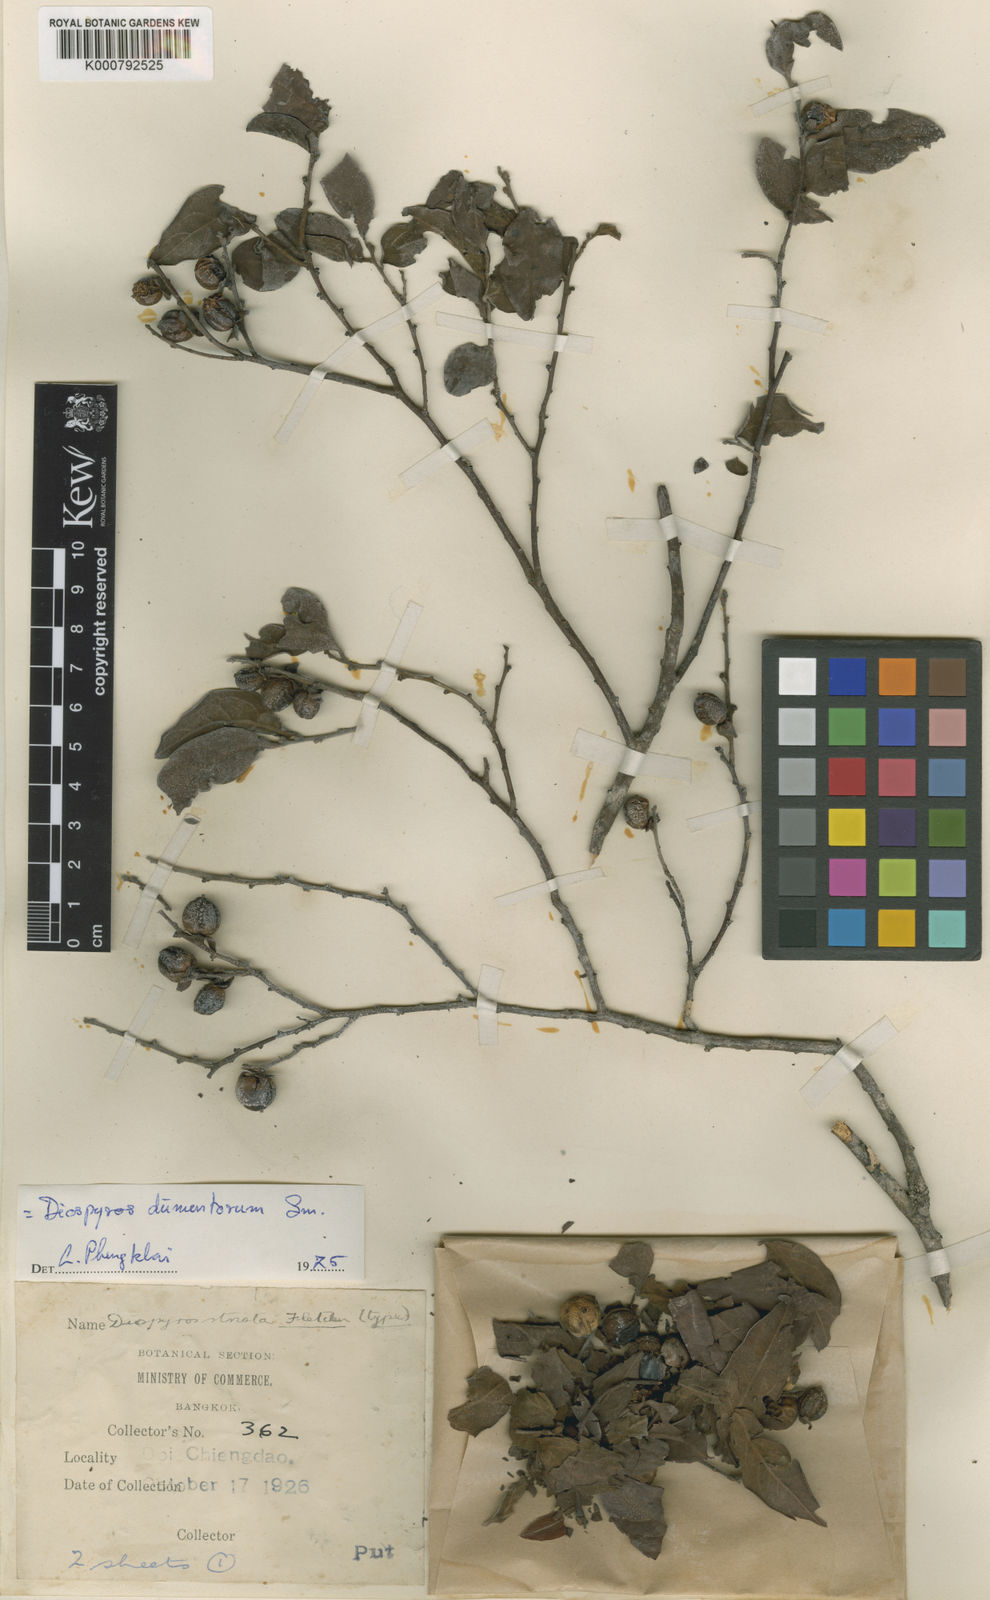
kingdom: Plantae
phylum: Tracheophyta
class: Magnoliopsida
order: Ericales
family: Ebenaceae
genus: Diospyros
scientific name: Diospyros dumetorum
